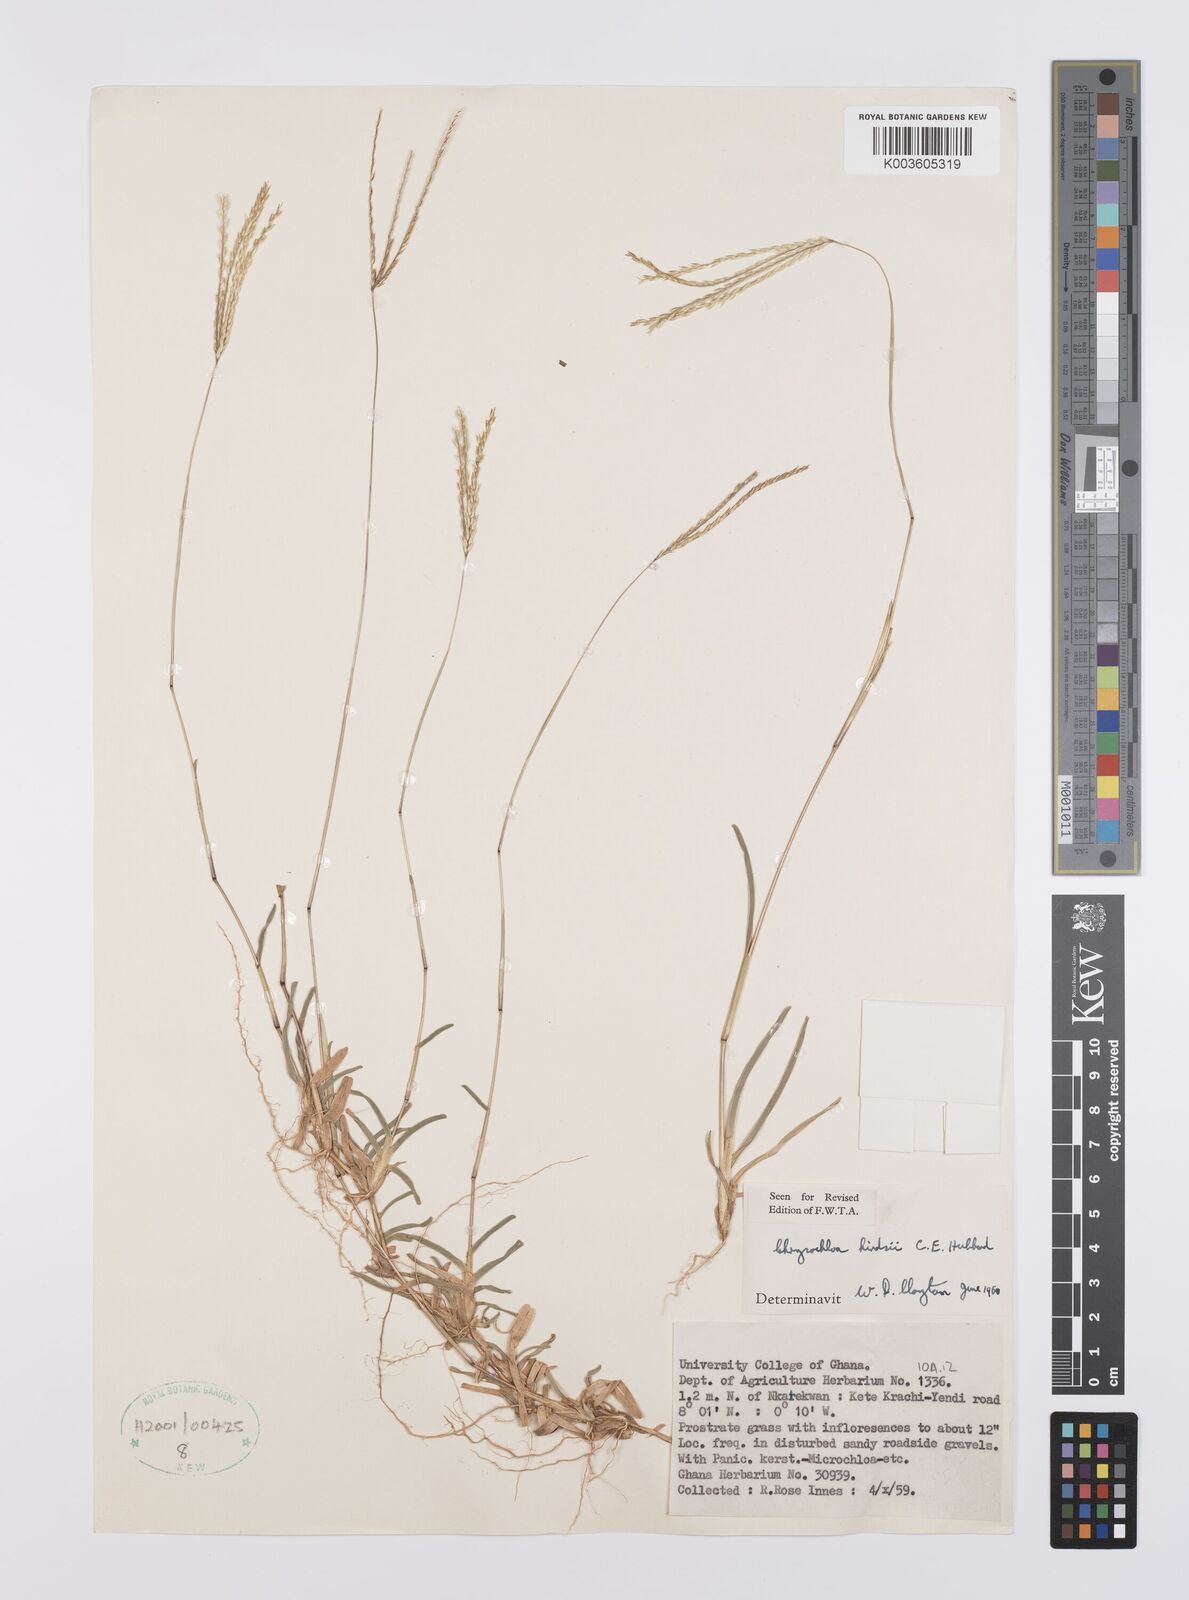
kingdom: Plantae
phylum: Tracheophyta
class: Liliopsida
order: Poales
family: Poaceae
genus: Chrysochloa
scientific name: Chrysochloa hindsii
